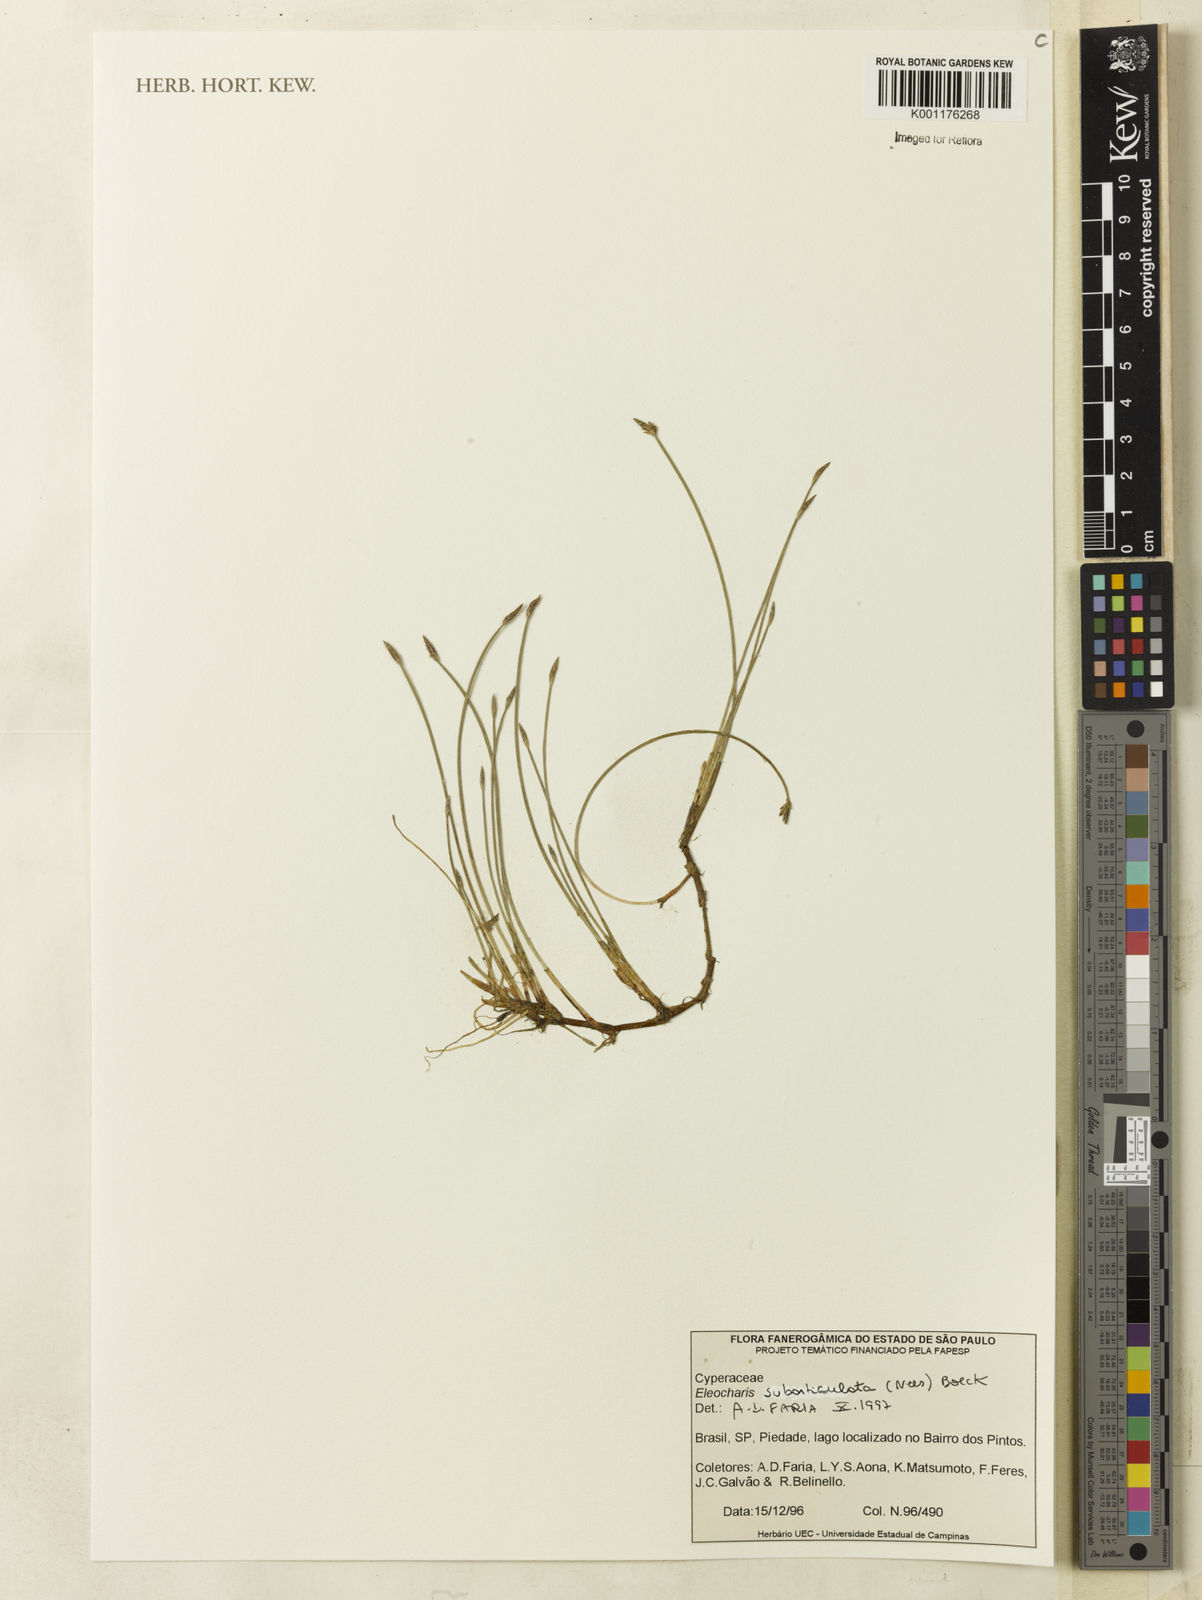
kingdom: Plantae
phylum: Tracheophyta
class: Liliopsida
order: Poales
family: Cyperaceae
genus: Eleocharis
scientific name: Eleocharis subarticulata
